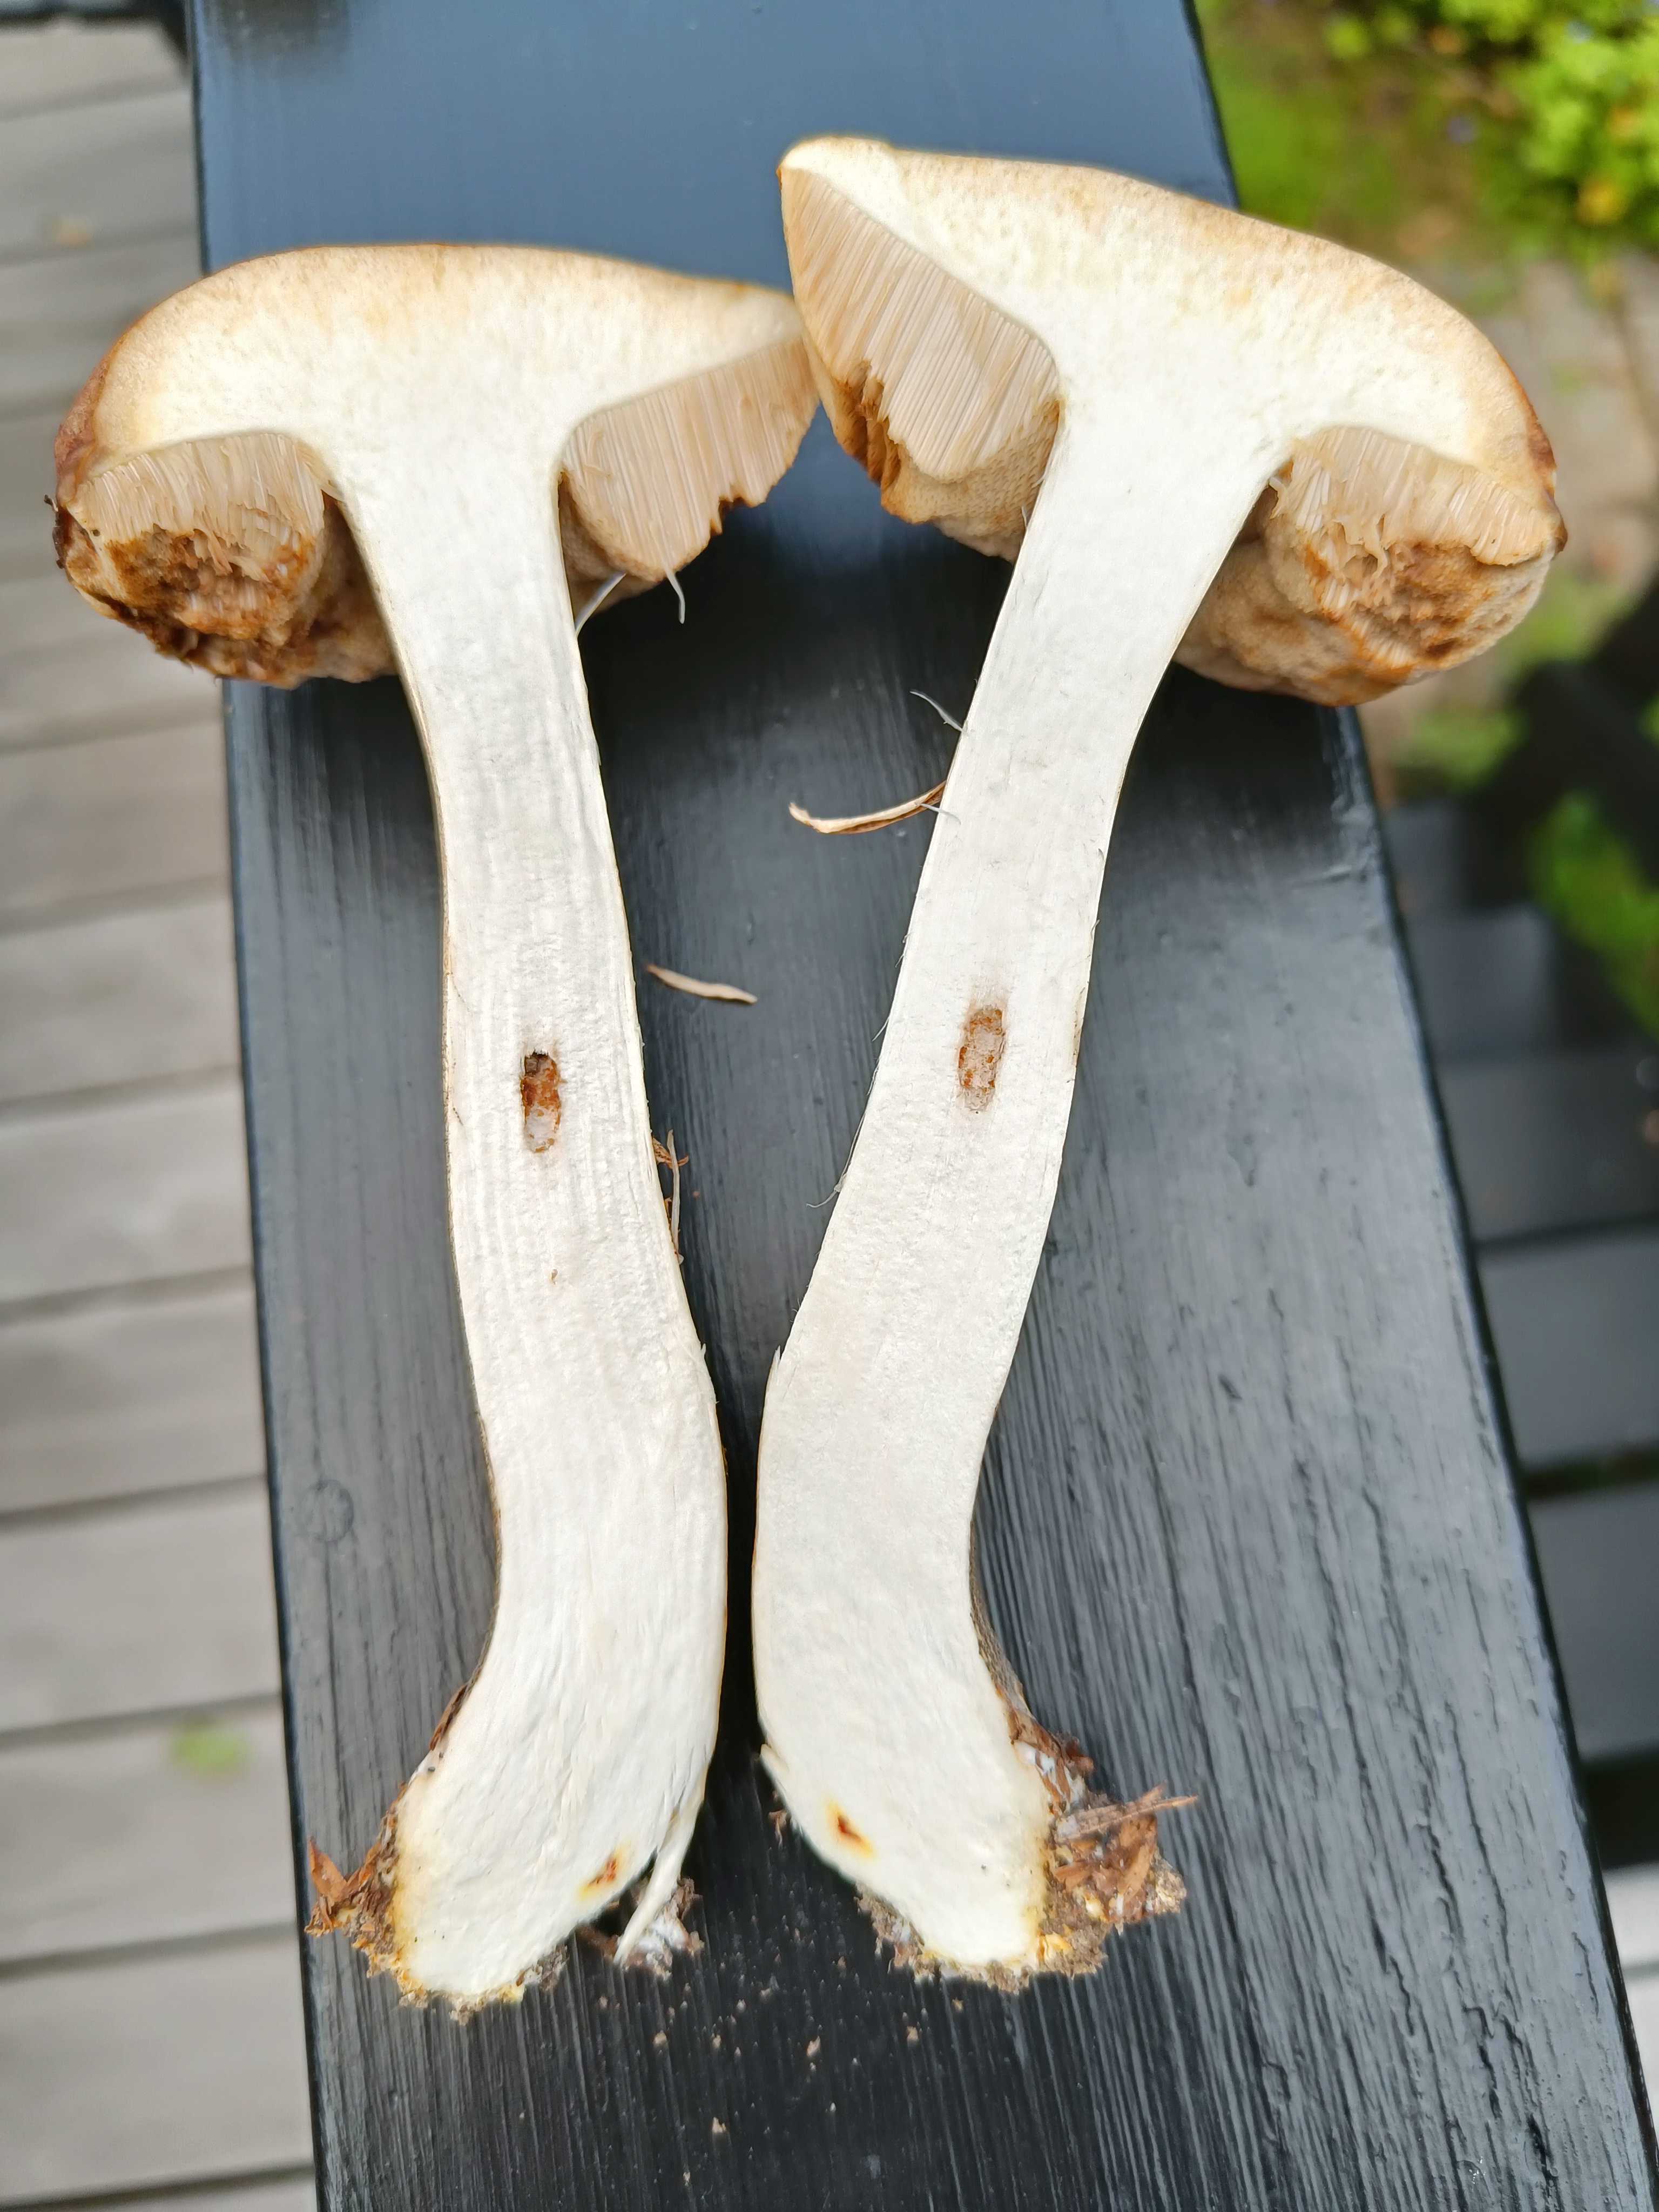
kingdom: Fungi
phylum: Basidiomycota
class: Agaricomycetes
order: Boletales
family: Boletaceae
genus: Leccinum
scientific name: Leccinum scabrum
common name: brun skælrørhat
